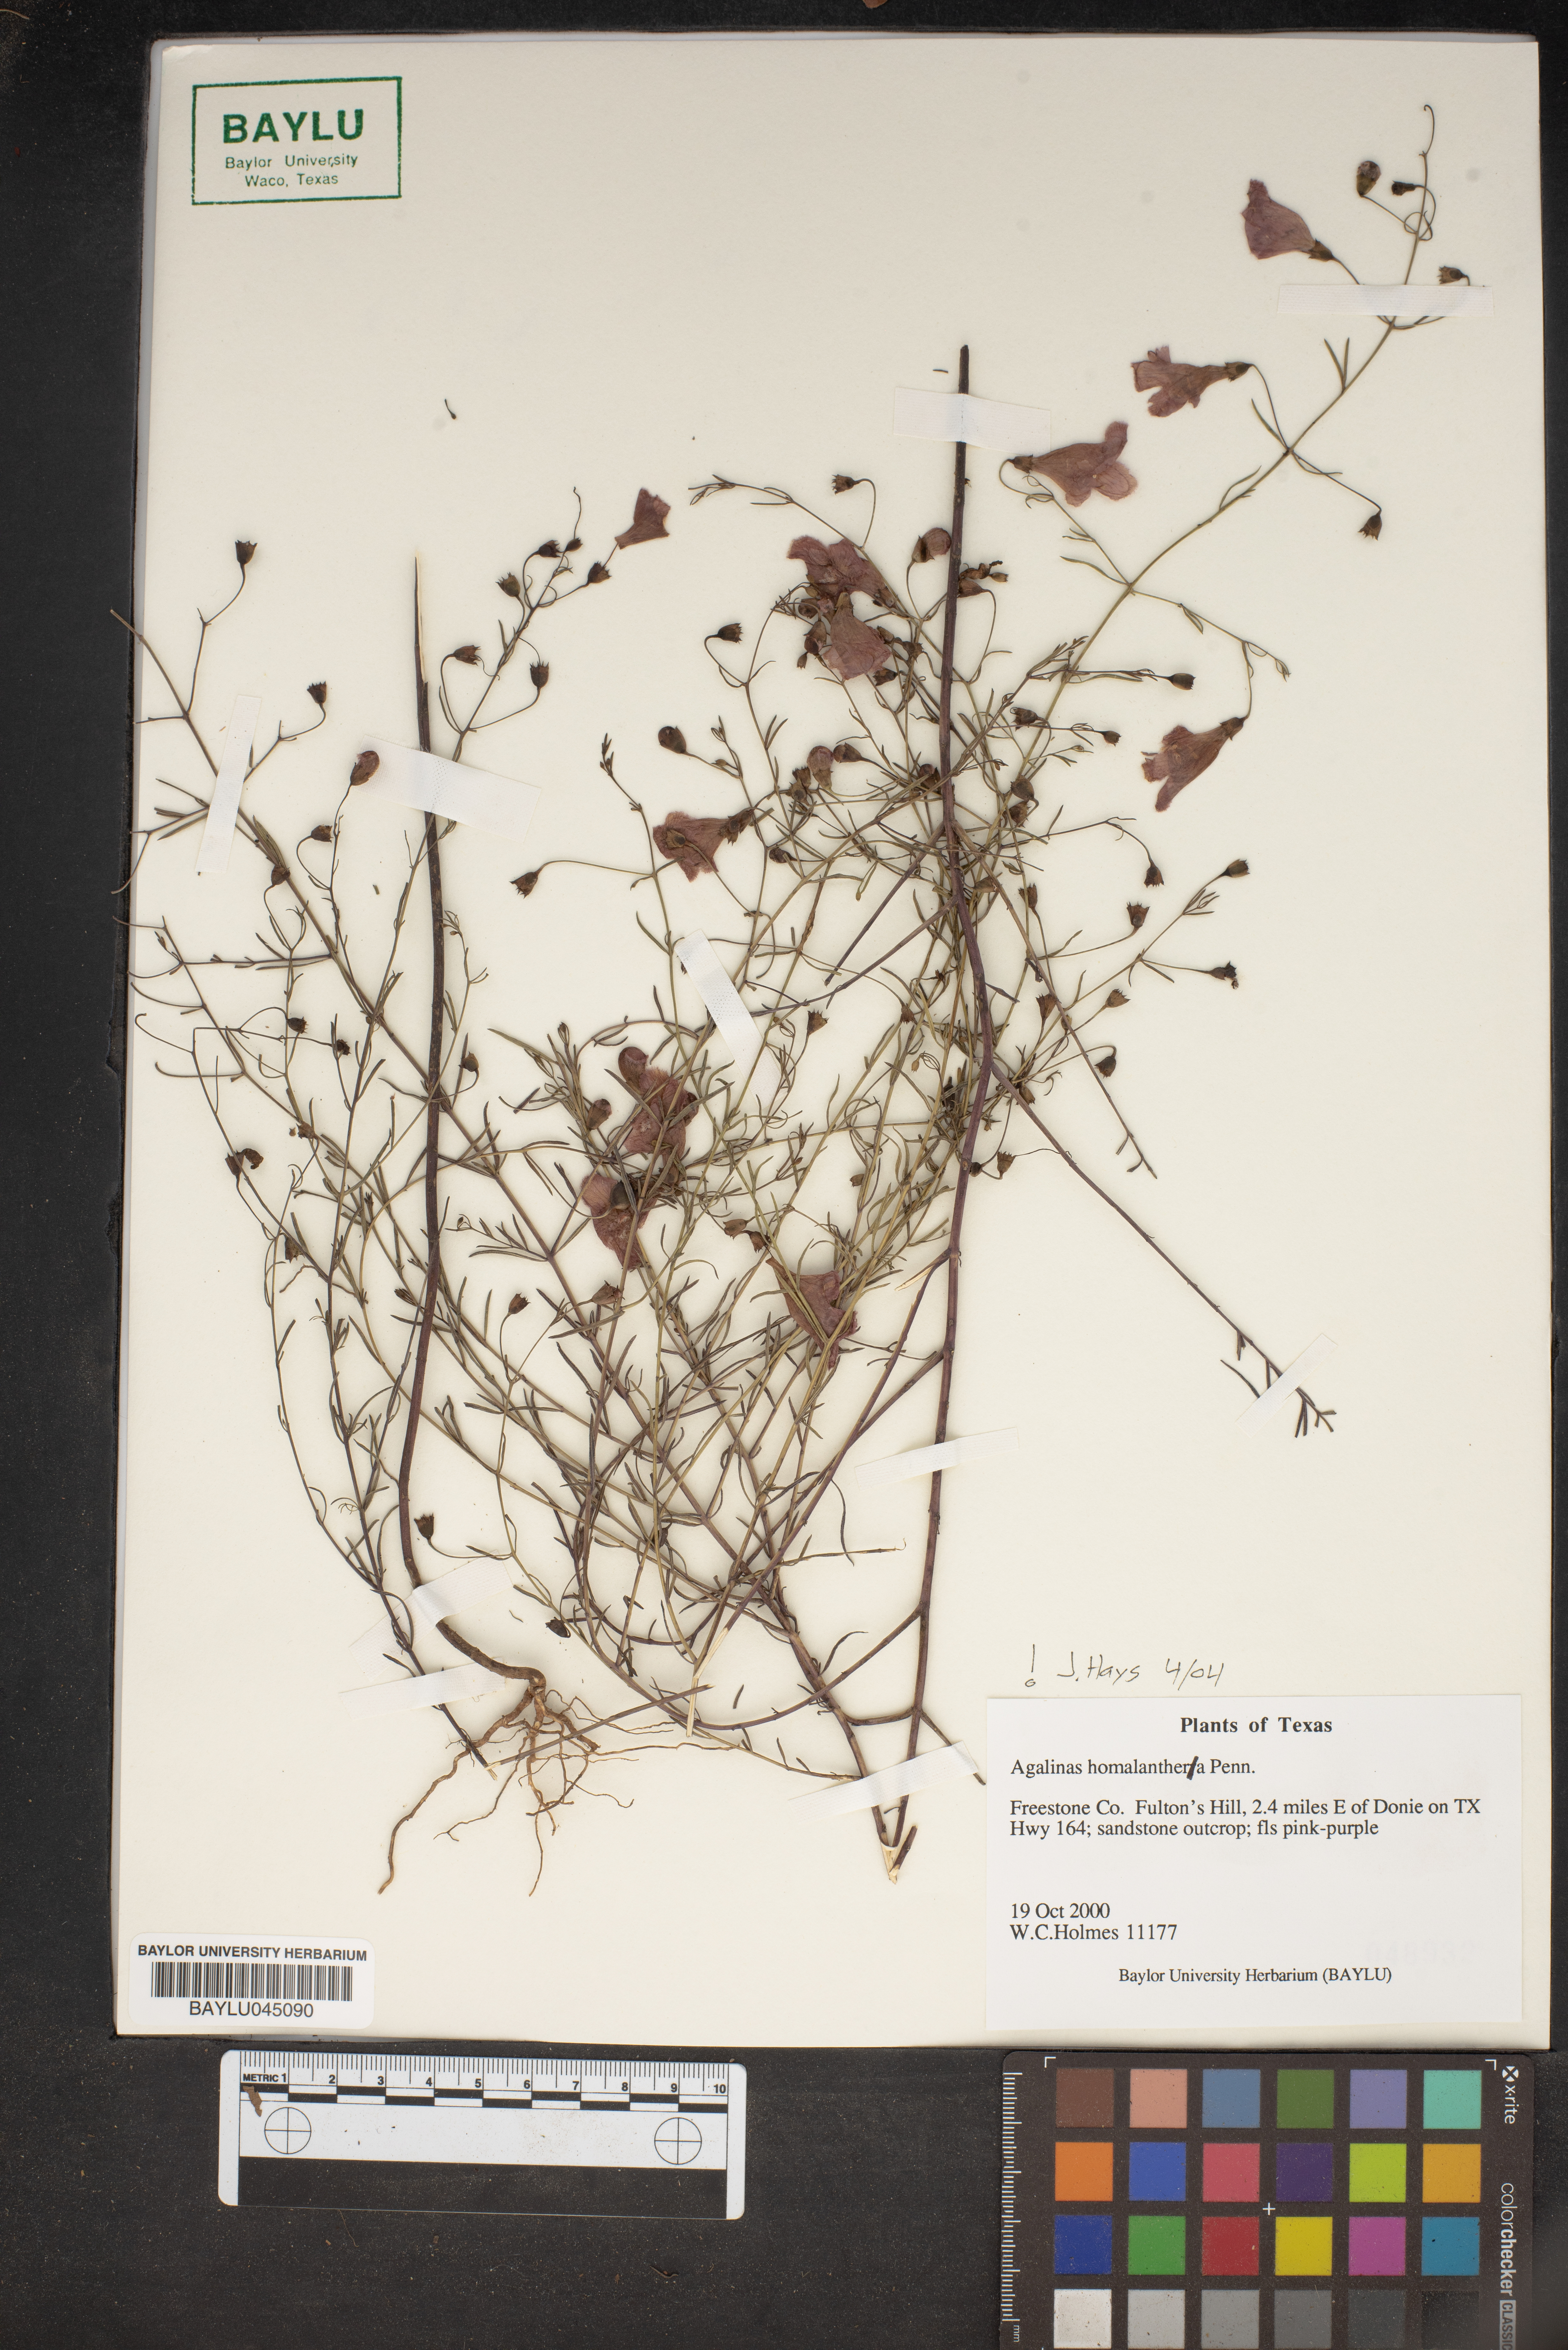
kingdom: Plantae
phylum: Tracheophyta
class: Magnoliopsida
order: Lamiales
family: Orobanchaceae
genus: Agalinis
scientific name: Agalinis homalantha
